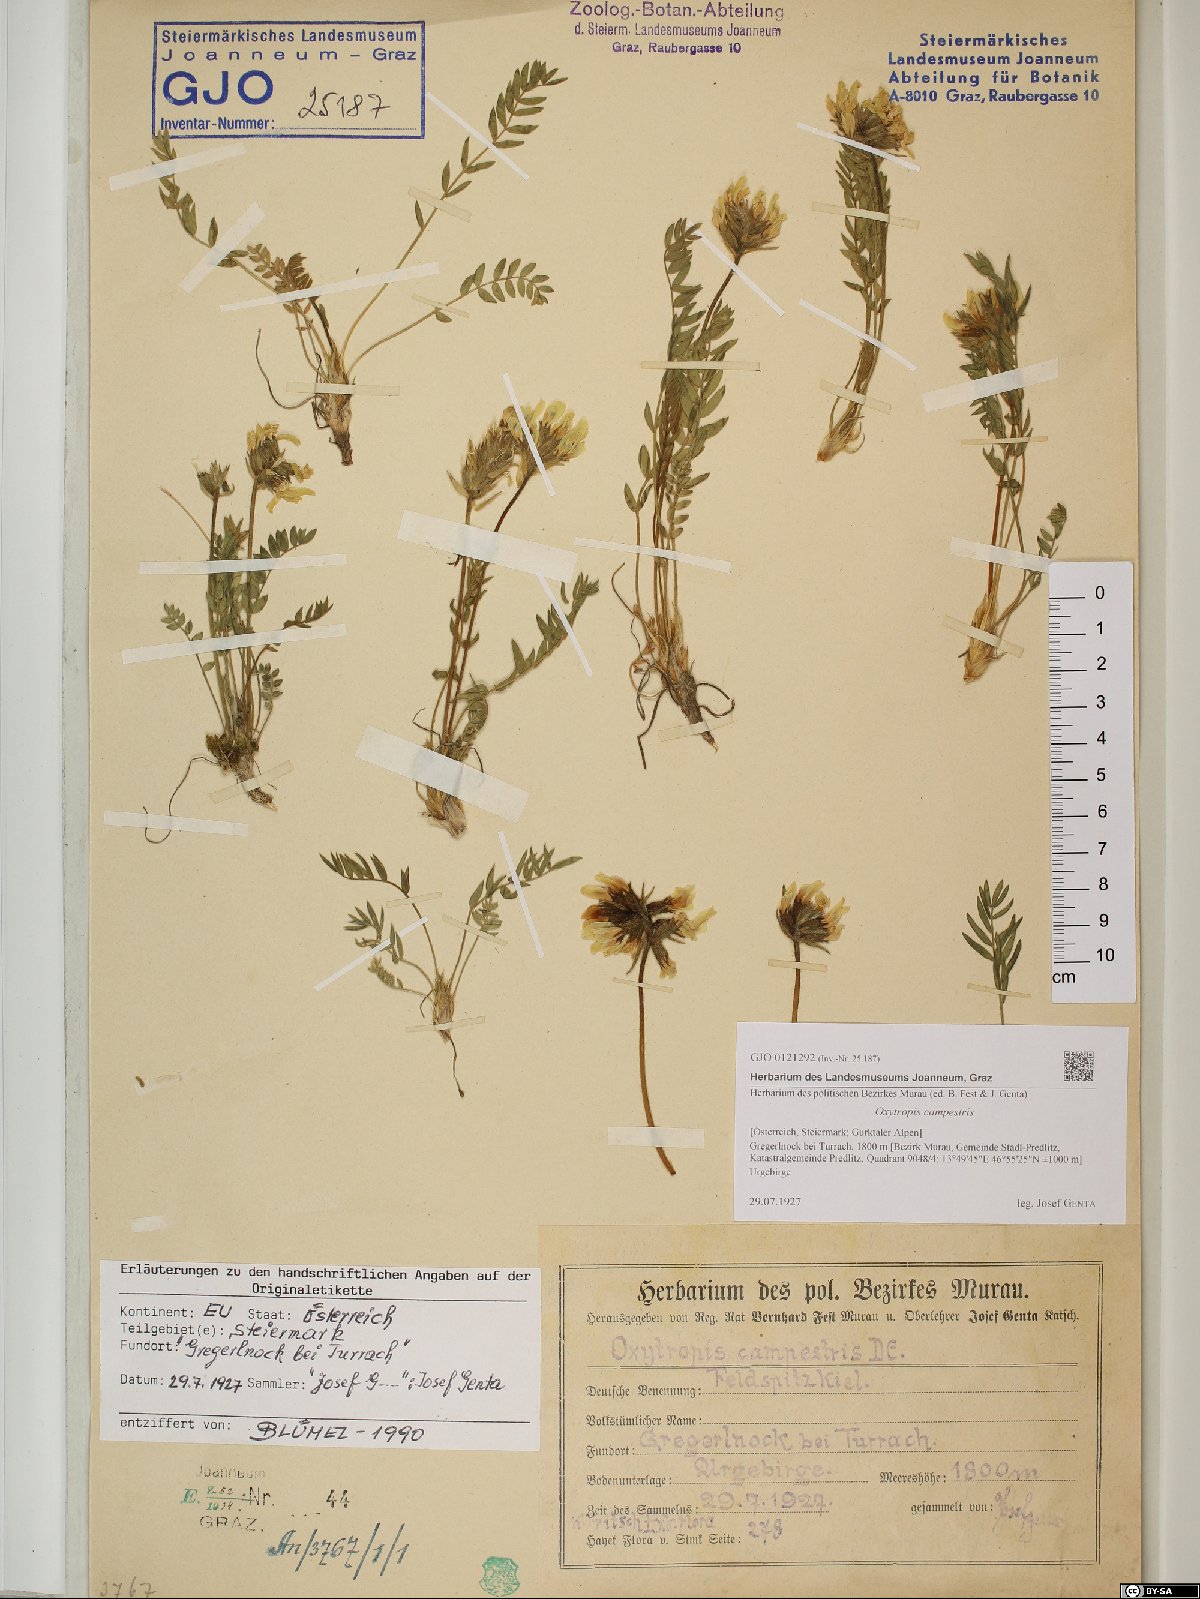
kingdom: Plantae
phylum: Tracheophyta
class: Magnoliopsida
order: Fabales
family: Fabaceae
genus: Oxytropis
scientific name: Oxytropis campestris
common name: Field locoweed
